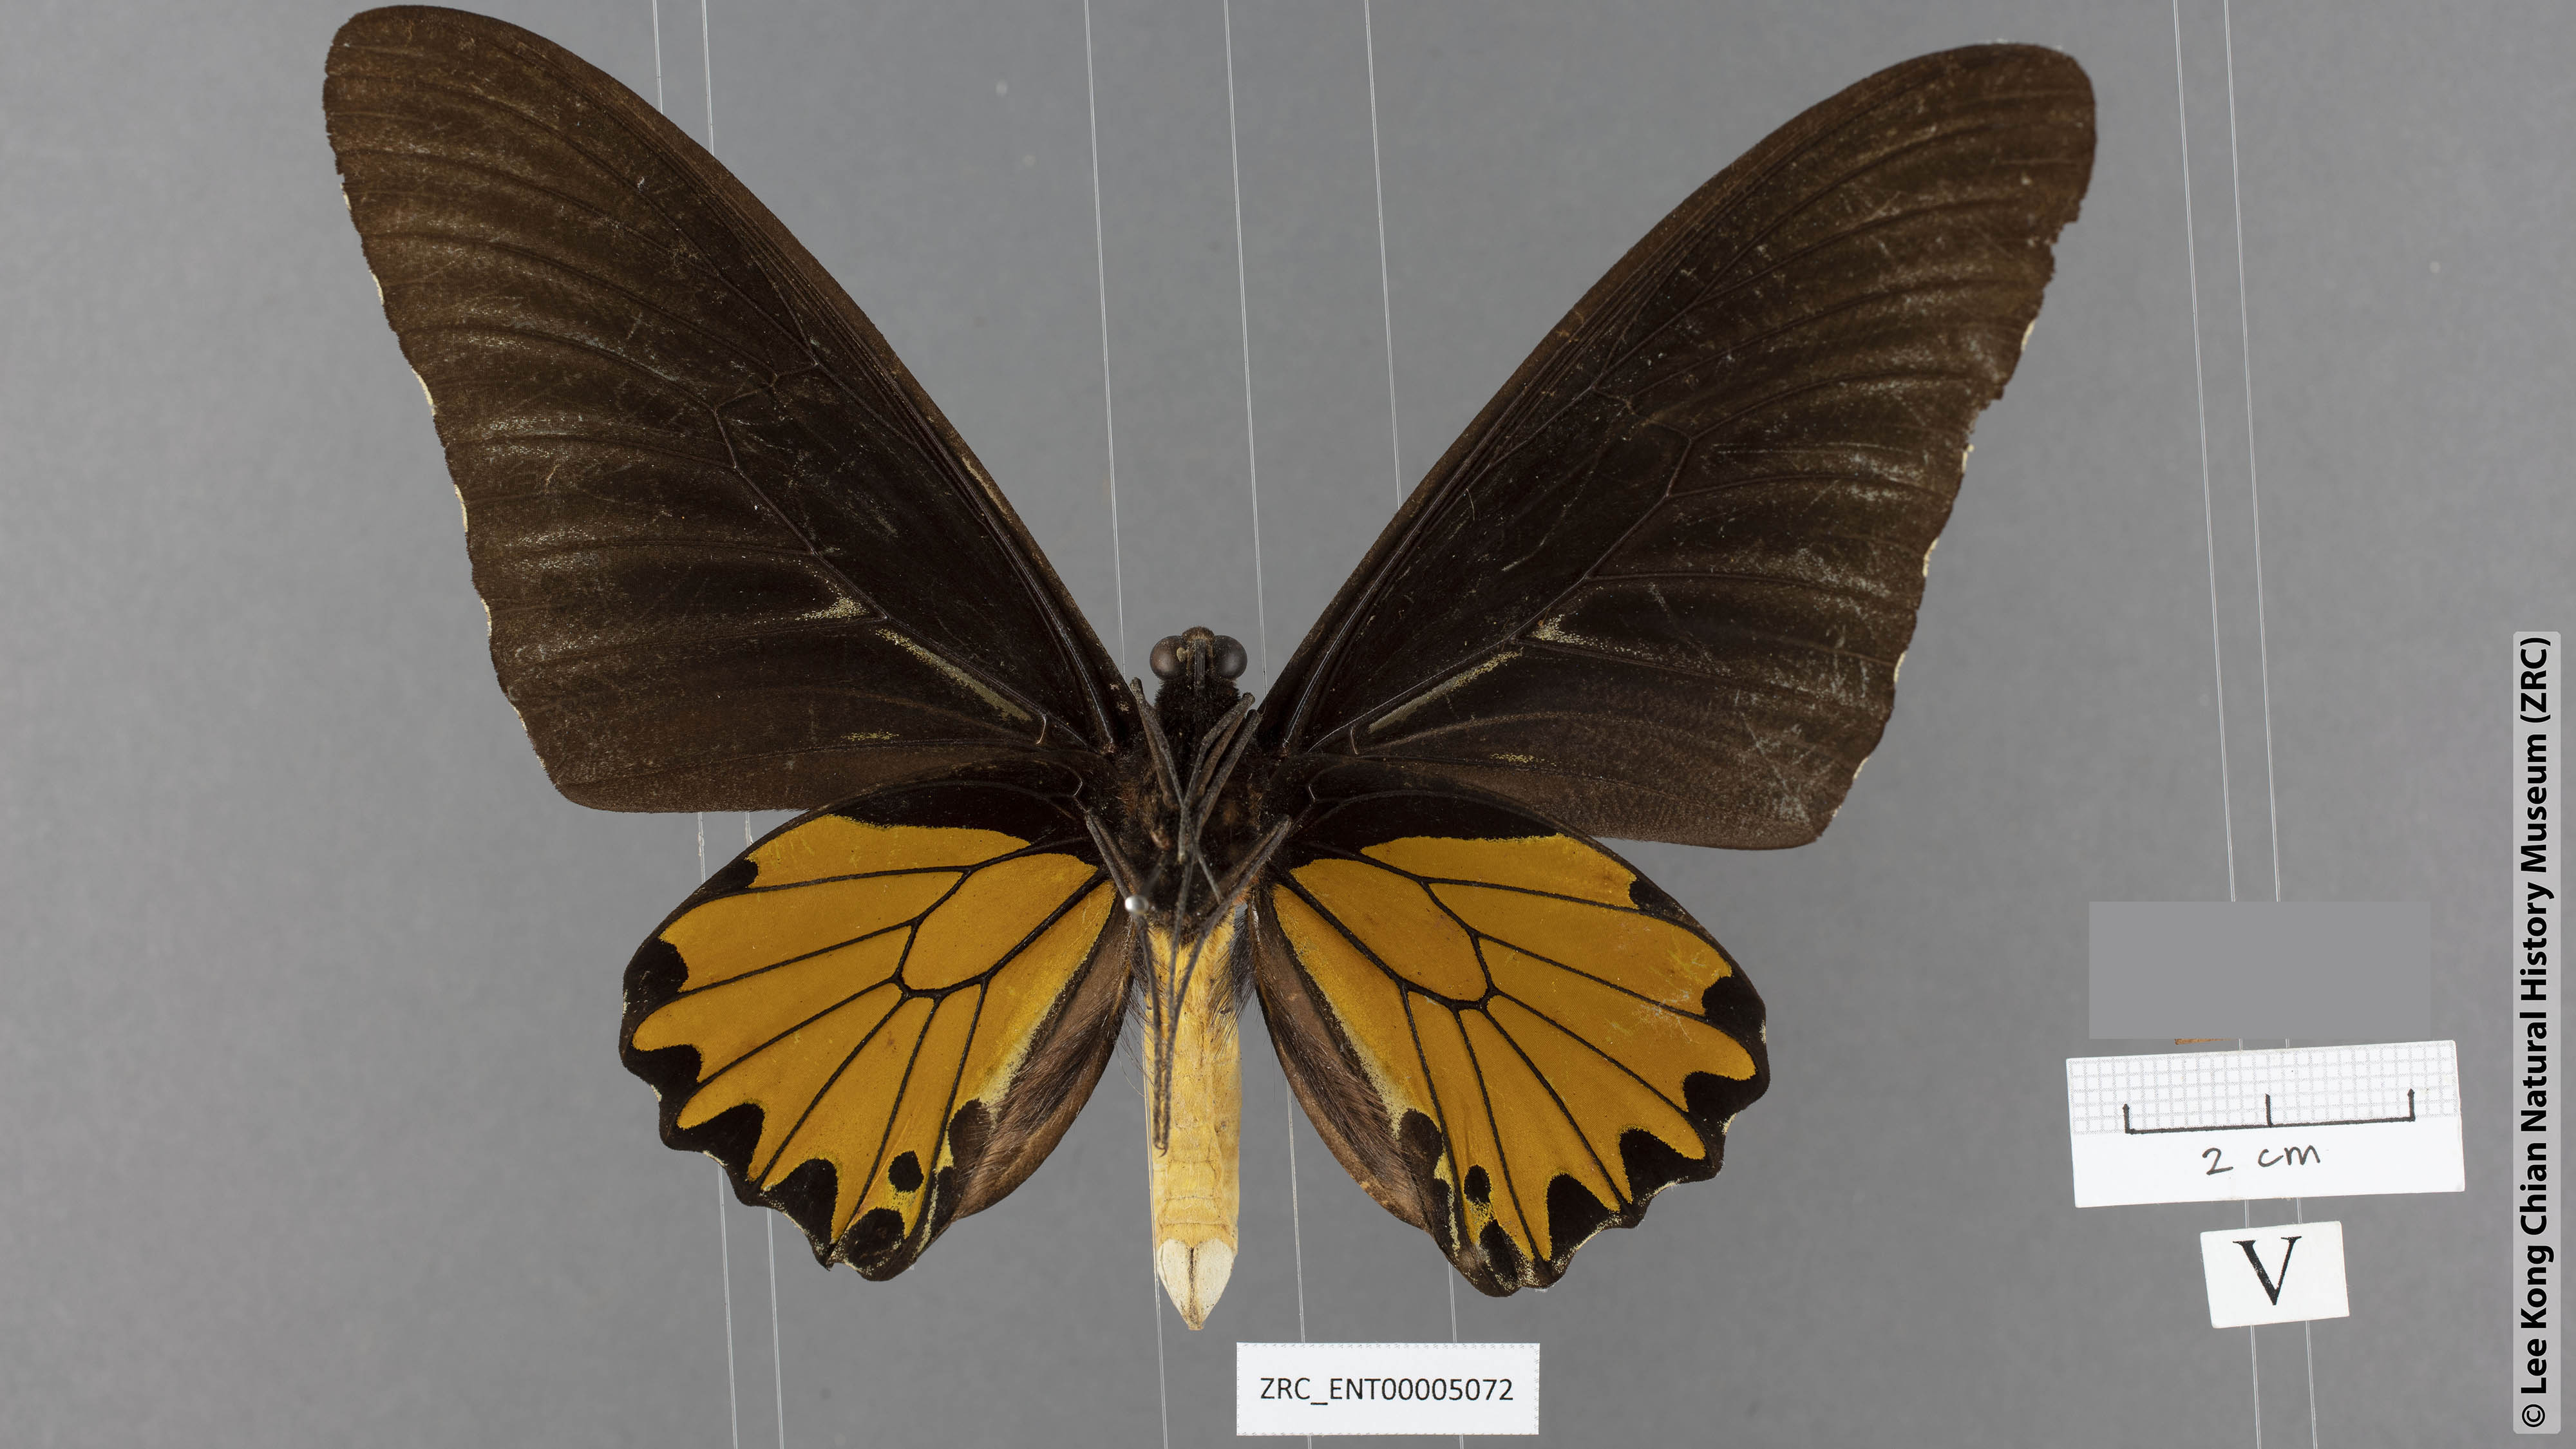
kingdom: Animalia
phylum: Arthropoda
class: Insecta
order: Lepidoptera
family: Papilionidae
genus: Troides
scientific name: Troides helena
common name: Common birdwing
